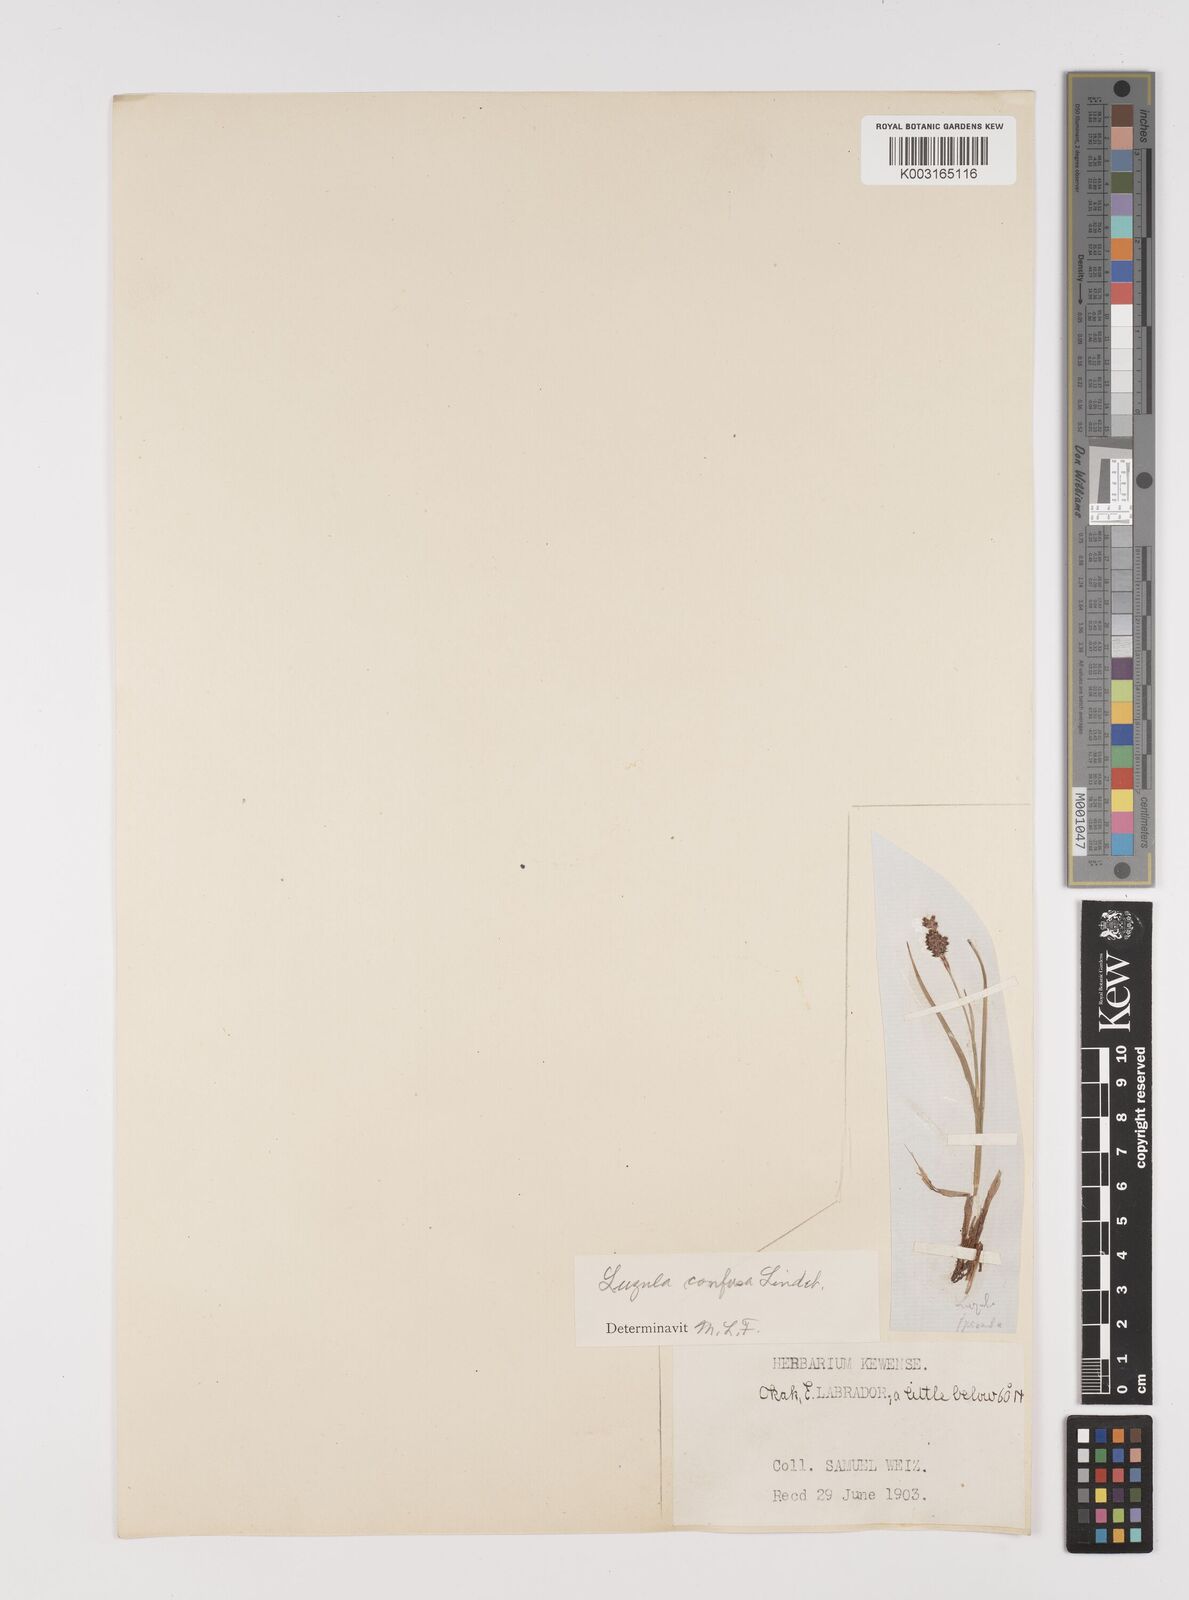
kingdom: Plantae
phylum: Tracheophyta
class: Liliopsida
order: Poales
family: Juncaceae
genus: Luzula
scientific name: Luzula spicata
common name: Spiked wood-rush
